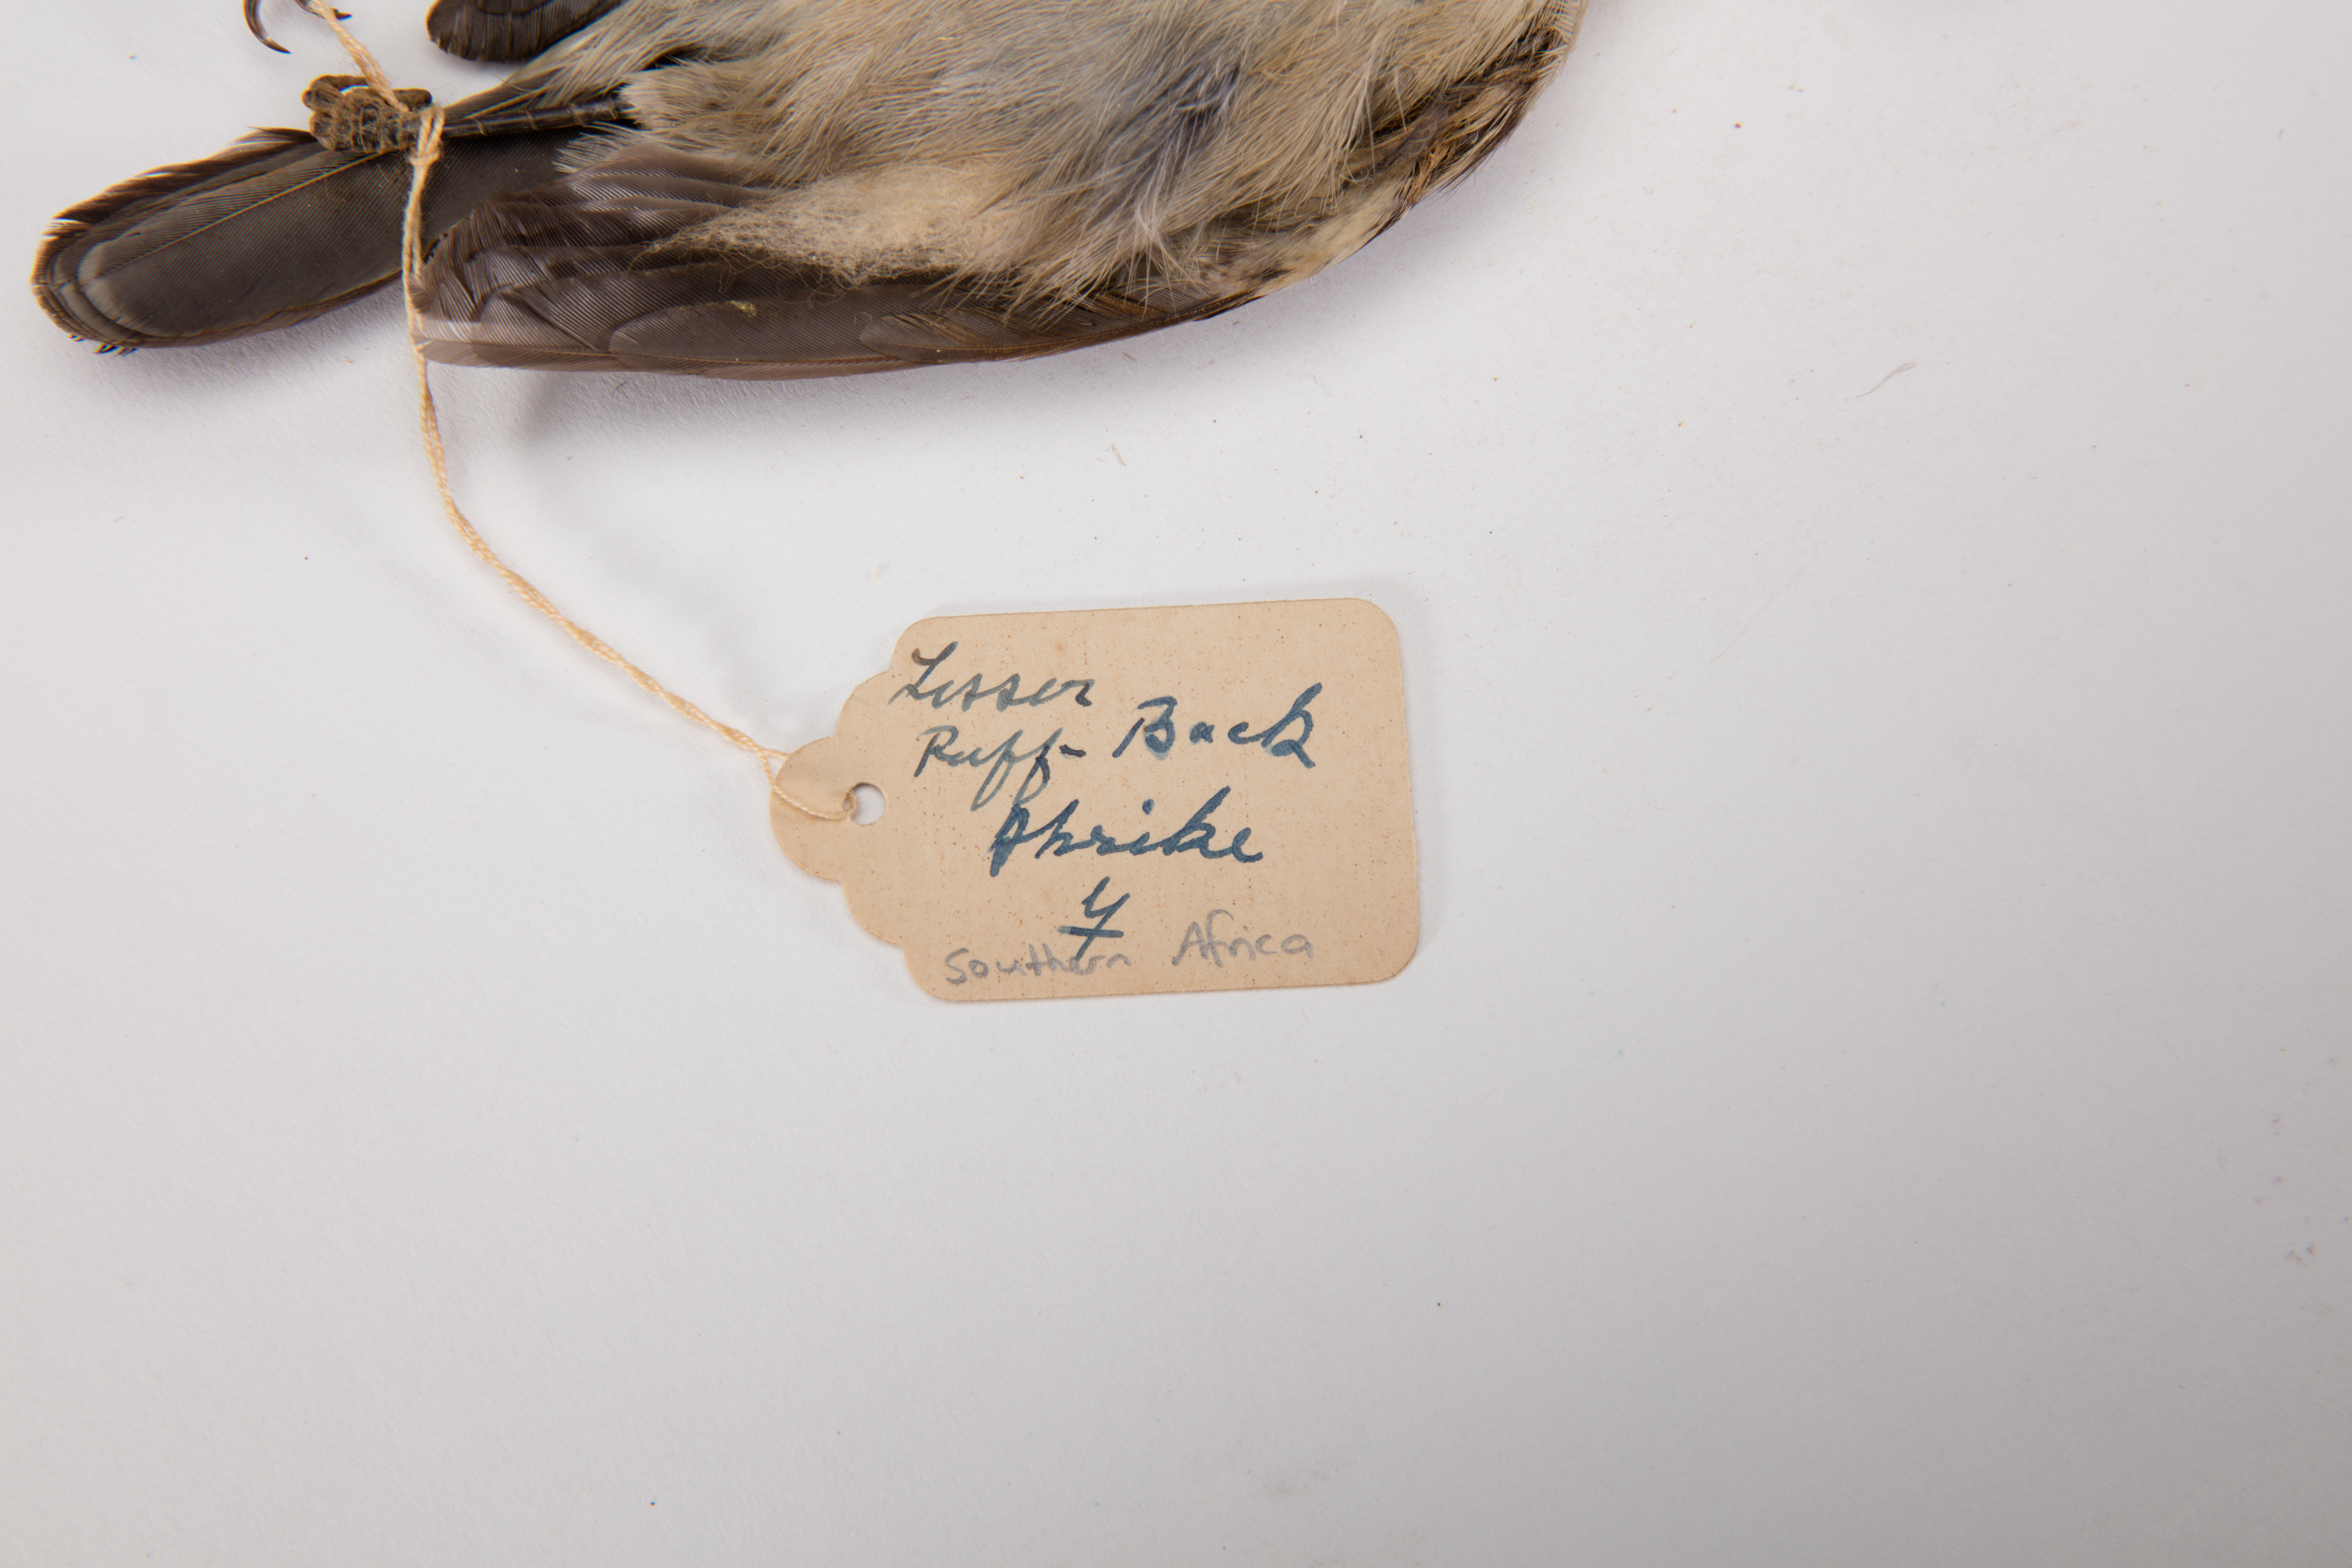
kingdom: Animalia
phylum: Chordata
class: Aves
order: Passeriformes
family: Malaconotidae
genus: Dryoscopus
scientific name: Dryoscopus cubla
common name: Black-backed puffback
